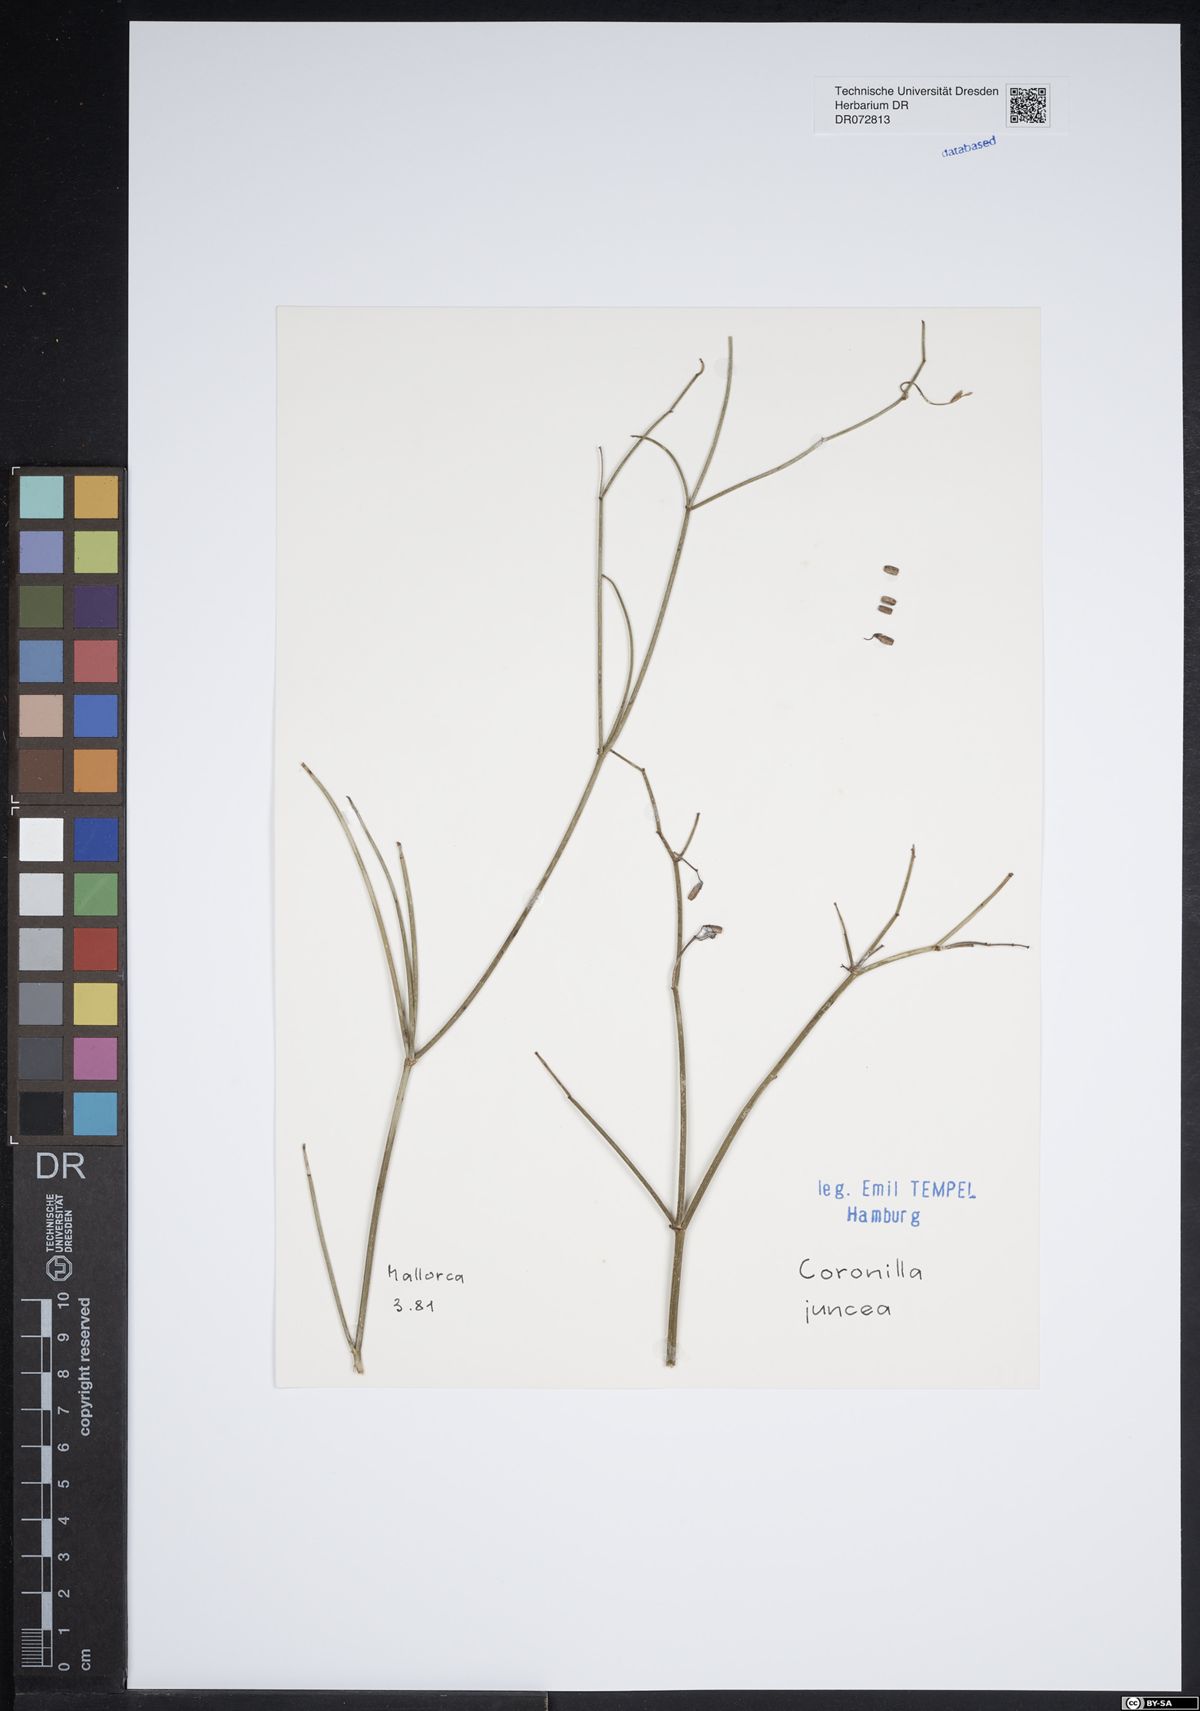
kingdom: Plantae
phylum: Tracheophyta
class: Magnoliopsida
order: Fabales
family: Fabaceae
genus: Coronilla
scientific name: Coronilla juncea
